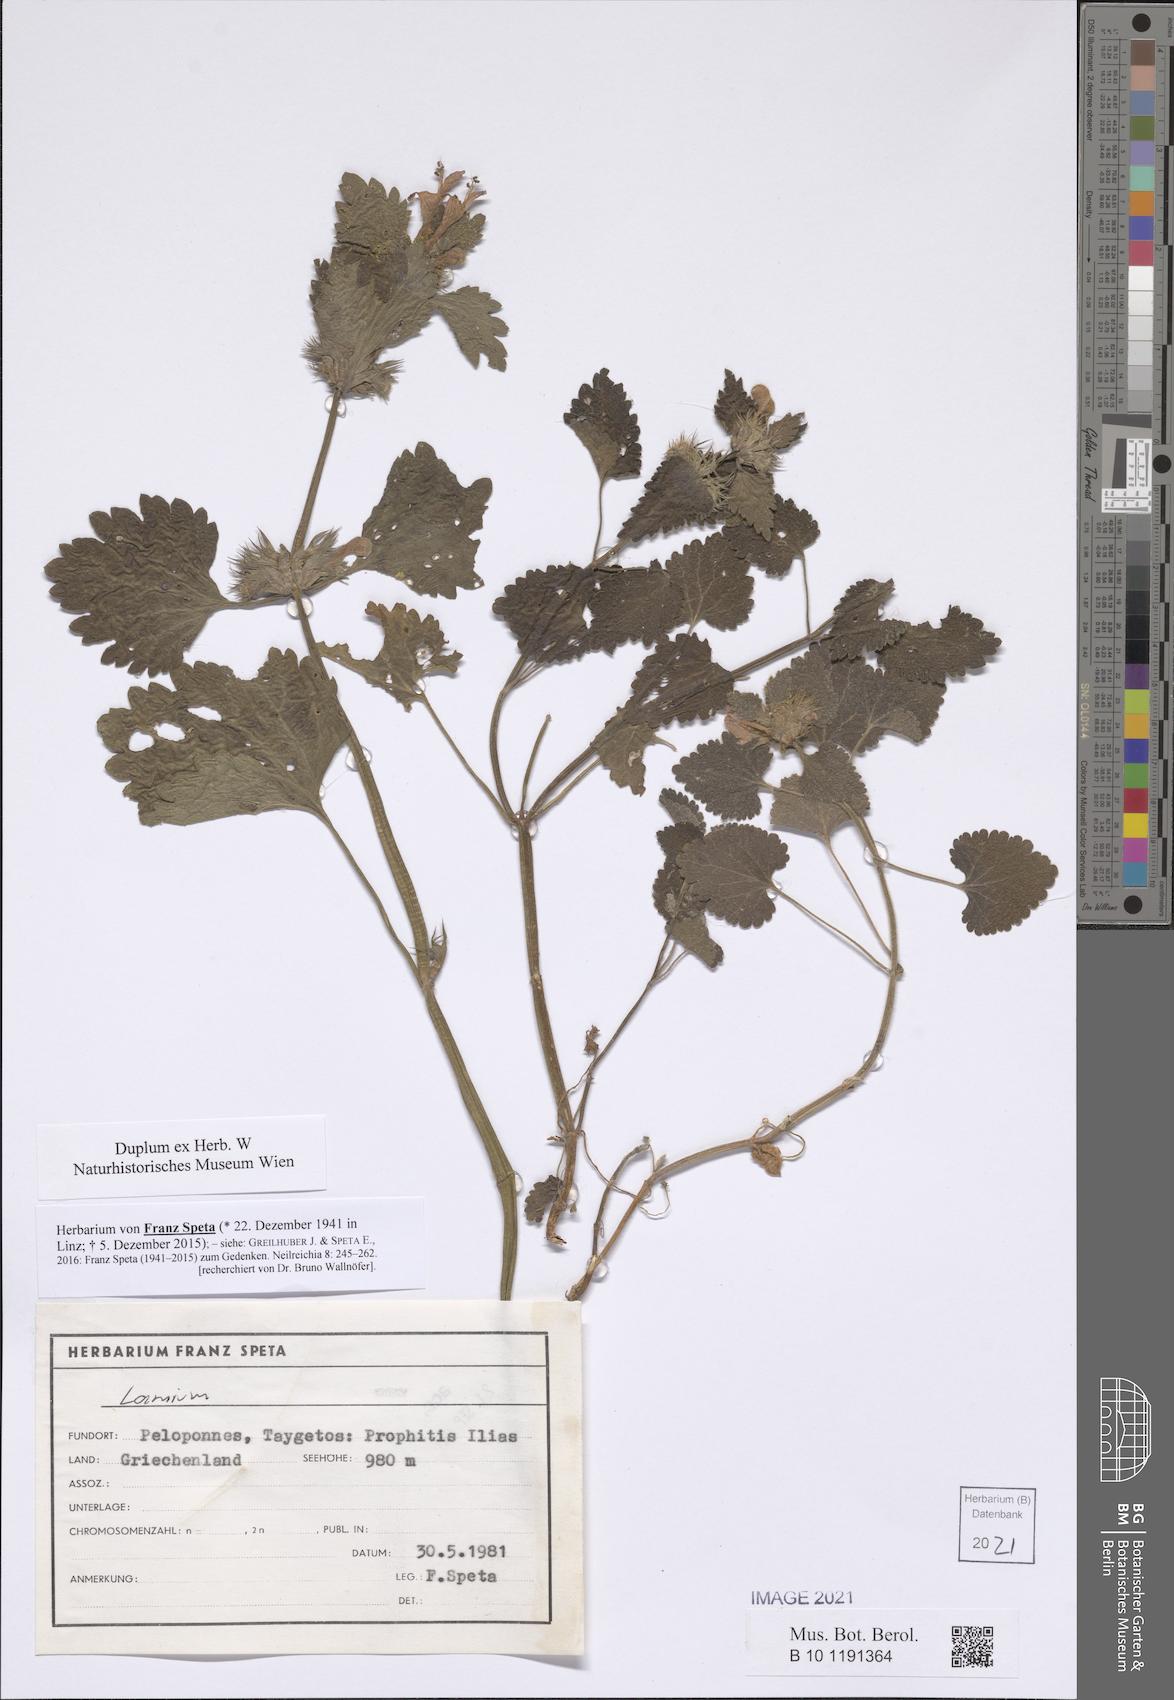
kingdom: Plantae
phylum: Tracheophyta
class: Magnoliopsida
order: Lamiales
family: Lamiaceae
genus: Lamium
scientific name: Lamium
